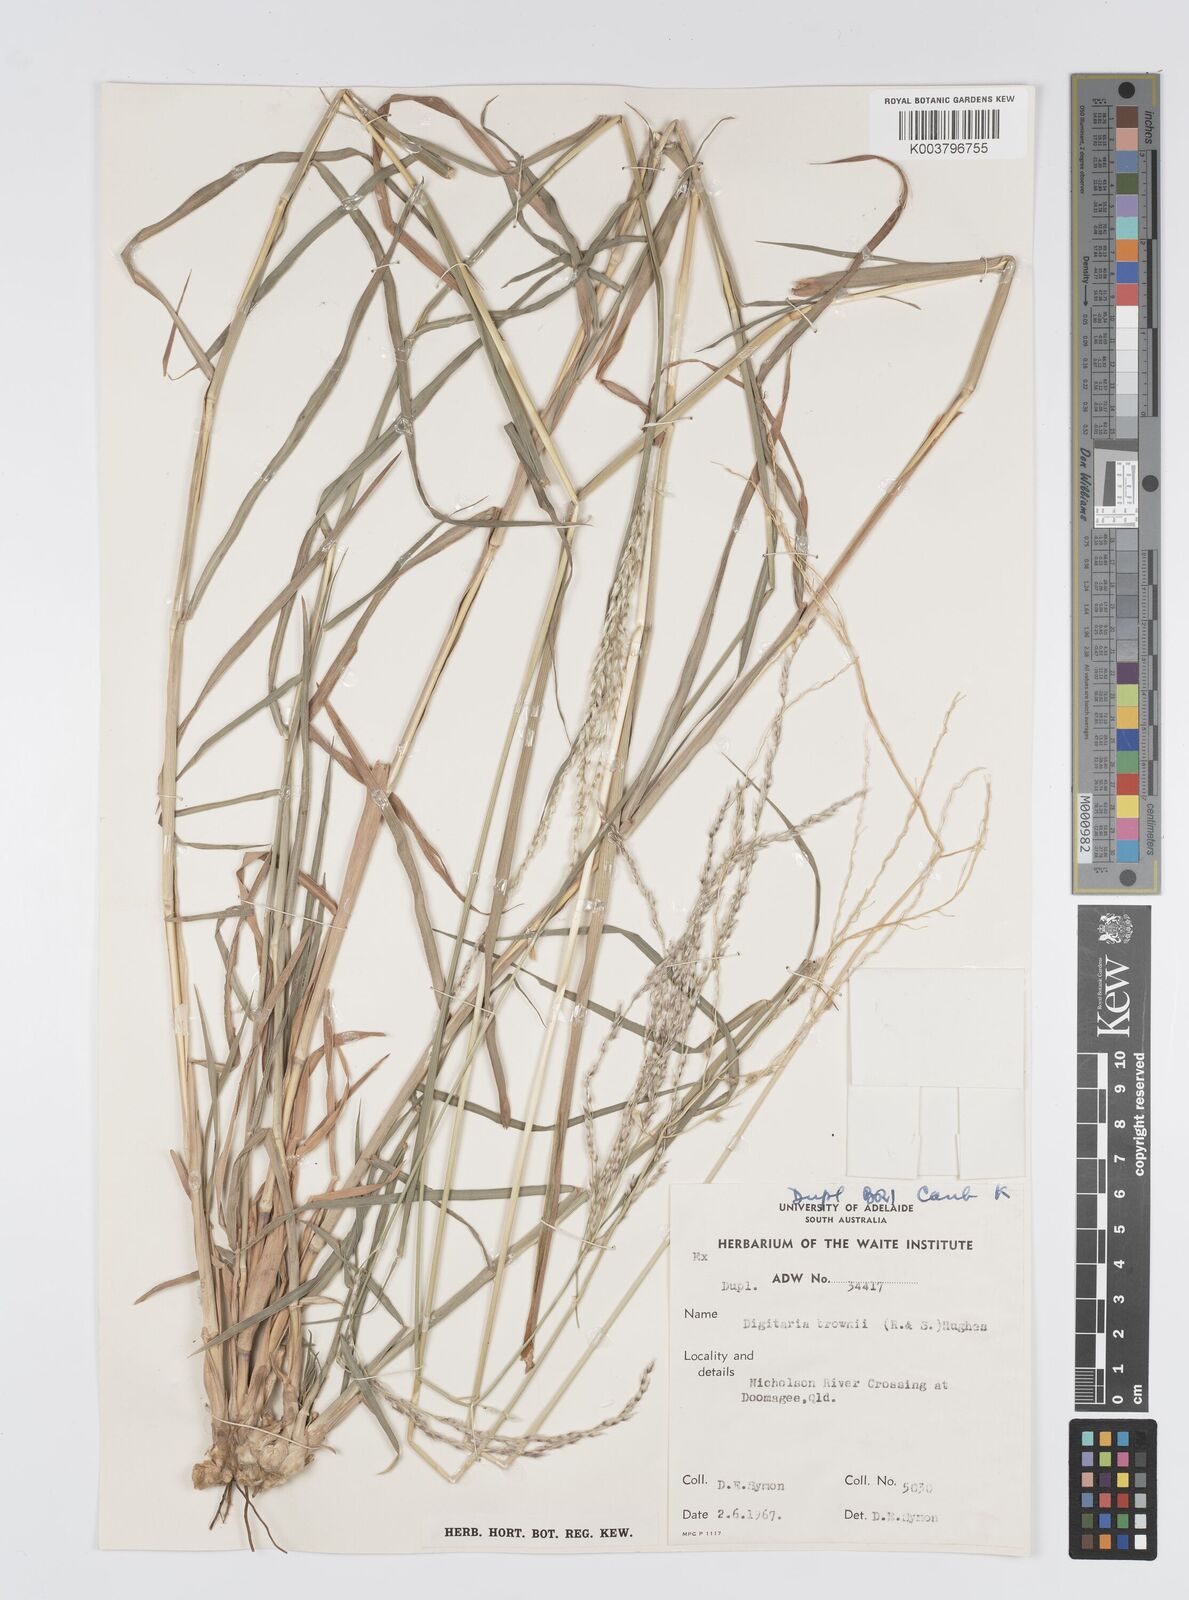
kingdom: Plantae
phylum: Tracheophyta
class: Liliopsida
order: Poales
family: Poaceae
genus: Digitaria
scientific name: Digitaria brownii
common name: Cotton grass
